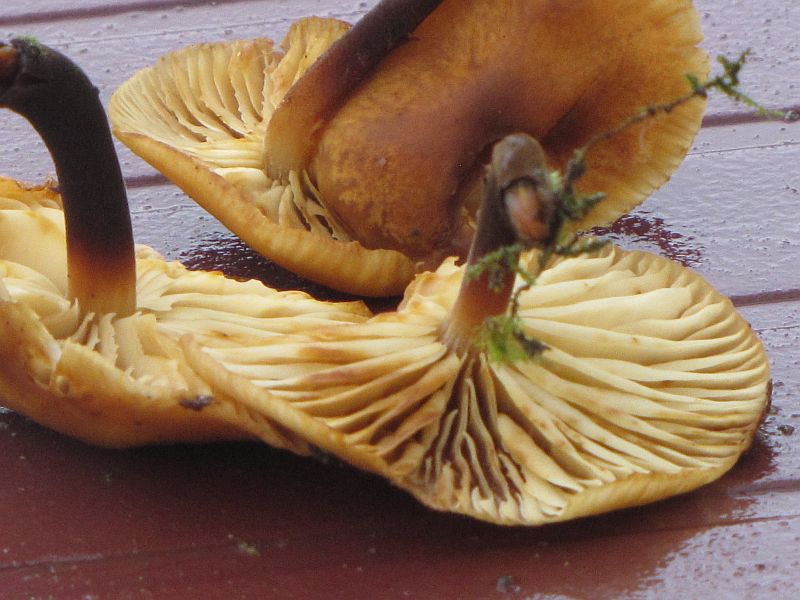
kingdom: Fungi
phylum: Basidiomycota
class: Agaricomycetes
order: Agaricales
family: Physalacriaceae
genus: Flammulina
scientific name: Flammulina elastica
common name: pile-fløjlsfod
